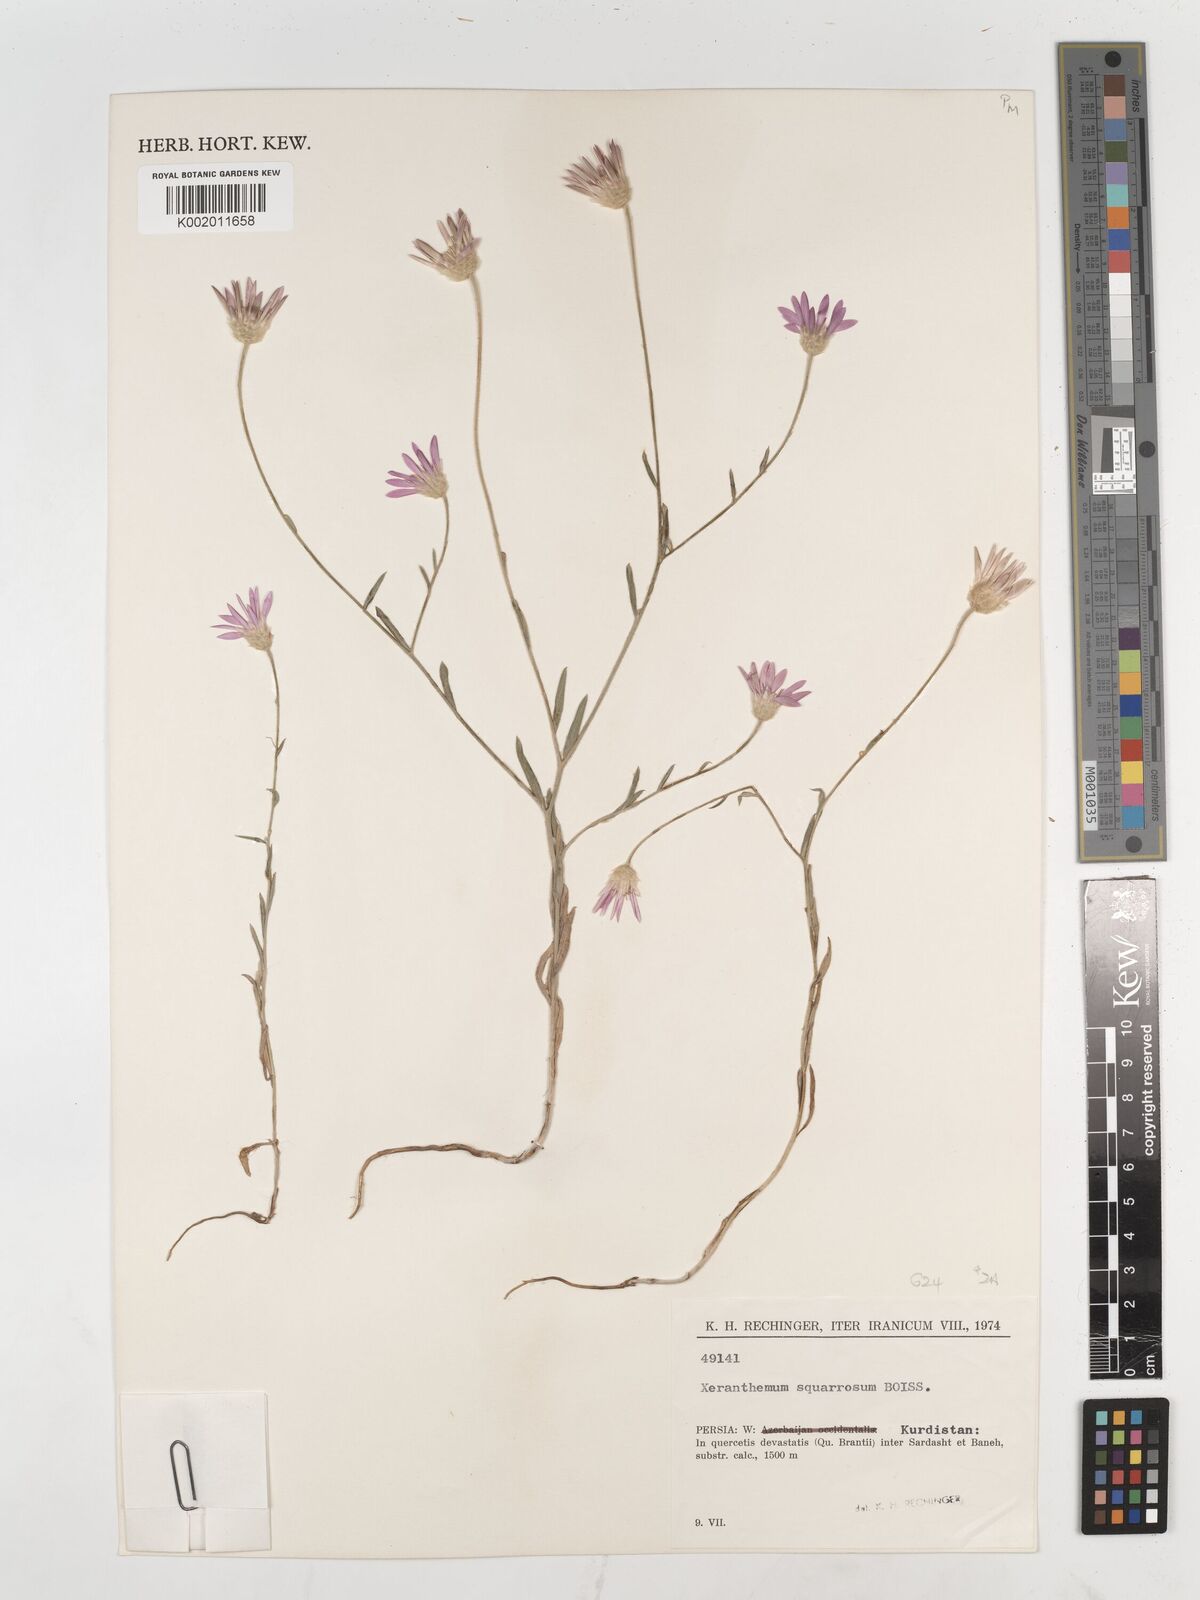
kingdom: Plantae
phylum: Tracheophyta
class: Magnoliopsida
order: Asterales
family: Asteraceae
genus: Xeranthemum
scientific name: Xeranthemum squarrosum
